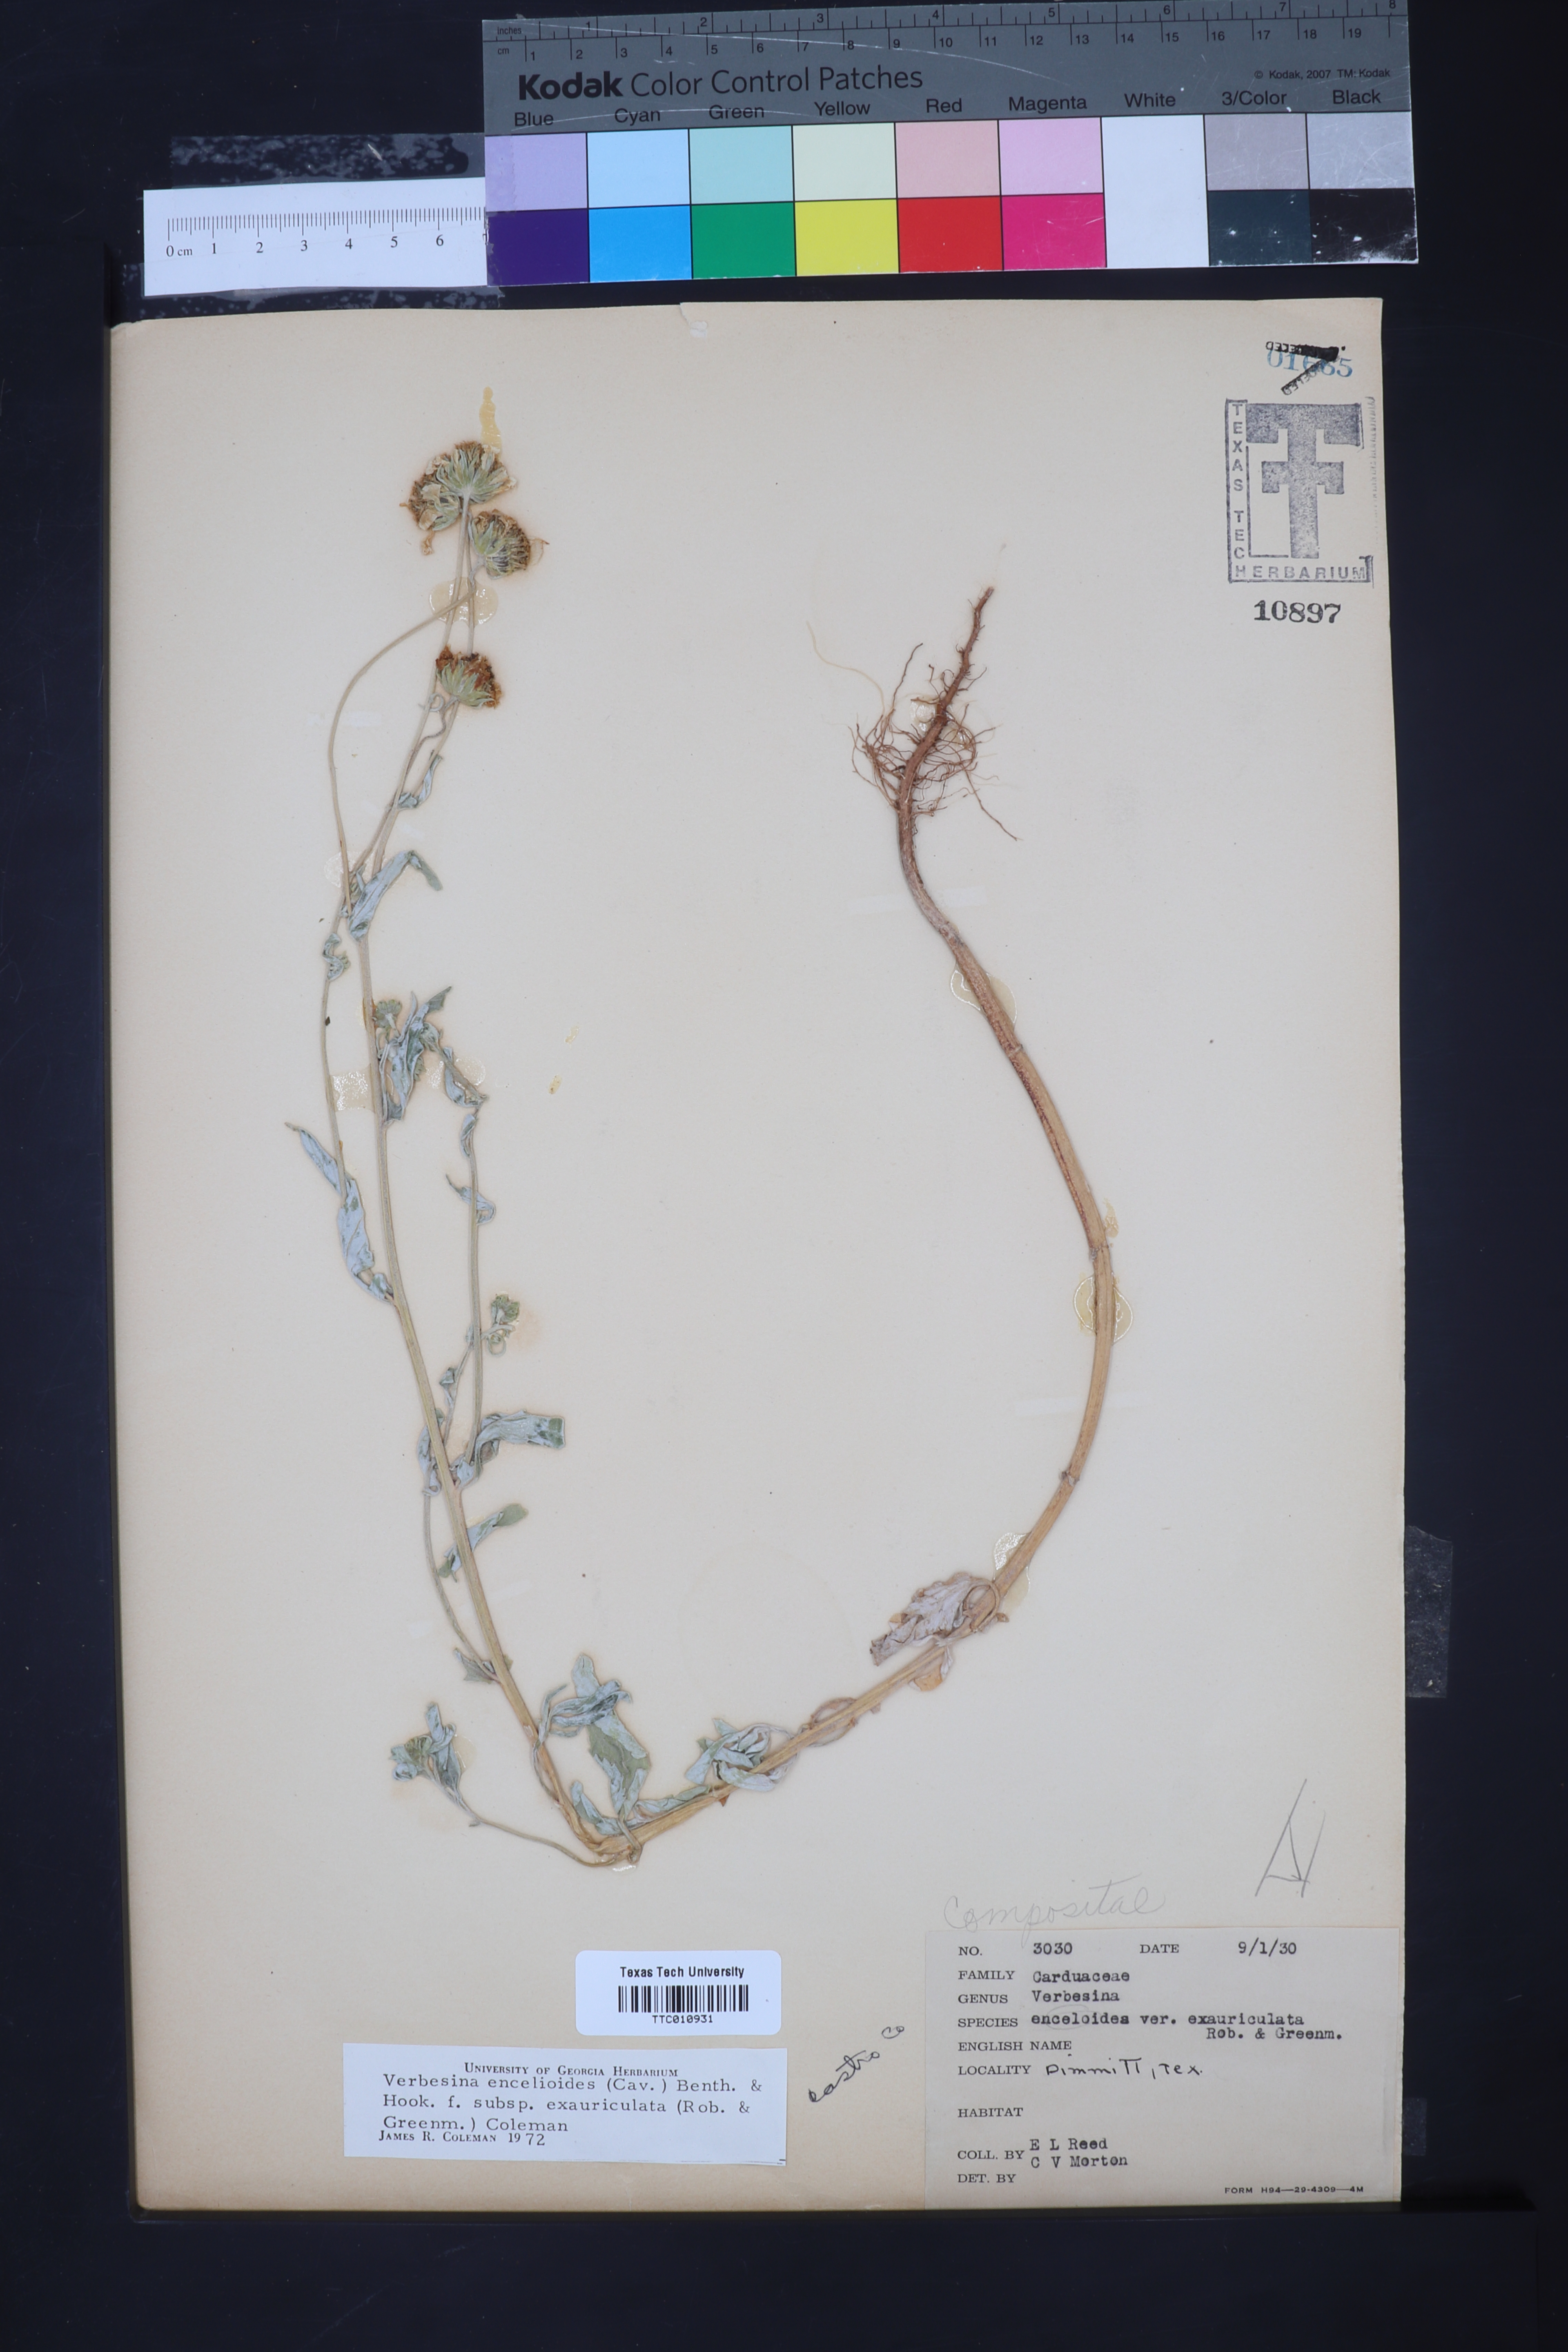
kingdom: Plantae
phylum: Tracheophyta
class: Magnoliopsida
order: Asterales
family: Asteraceae
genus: Verbesina
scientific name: Verbesina encelioides
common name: Golden crownbeard
